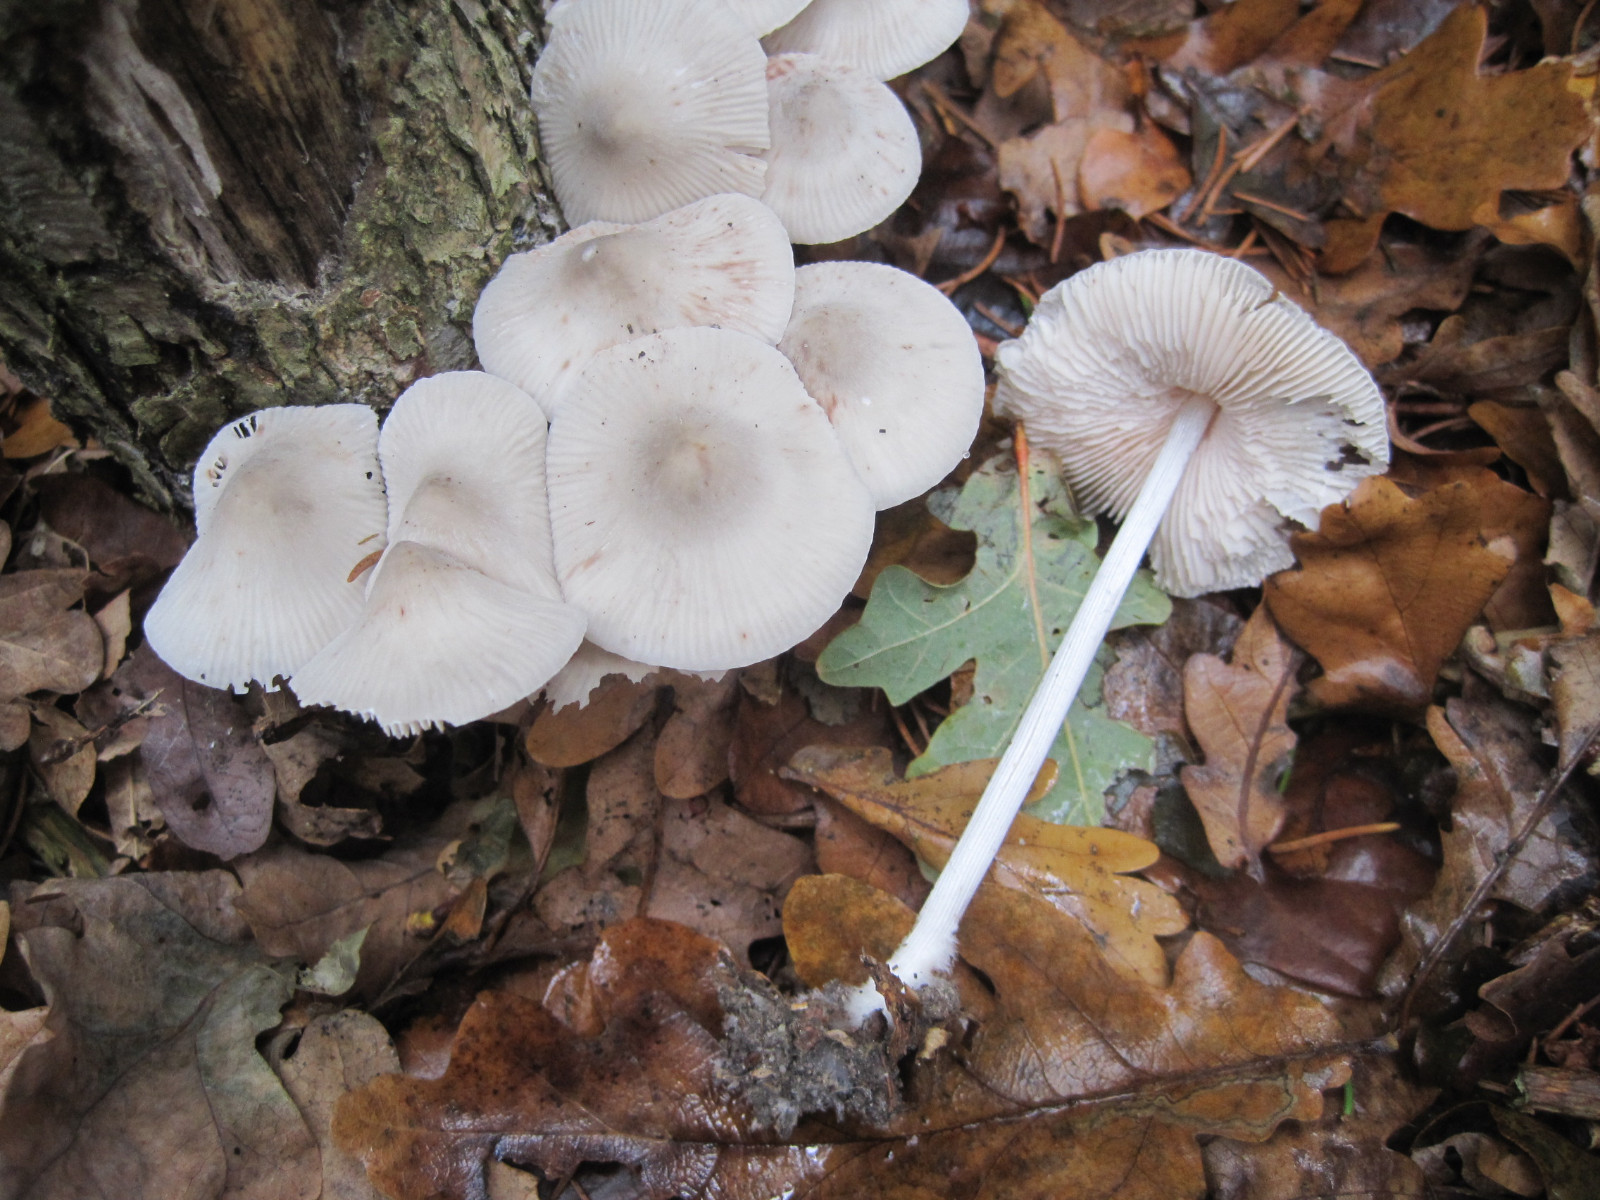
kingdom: Fungi
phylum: Basidiomycota
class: Agaricomycetes
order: Agaricales
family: Mycenaceae
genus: Mycena
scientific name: Mycena polygramma
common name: mangestribet huesvamp
